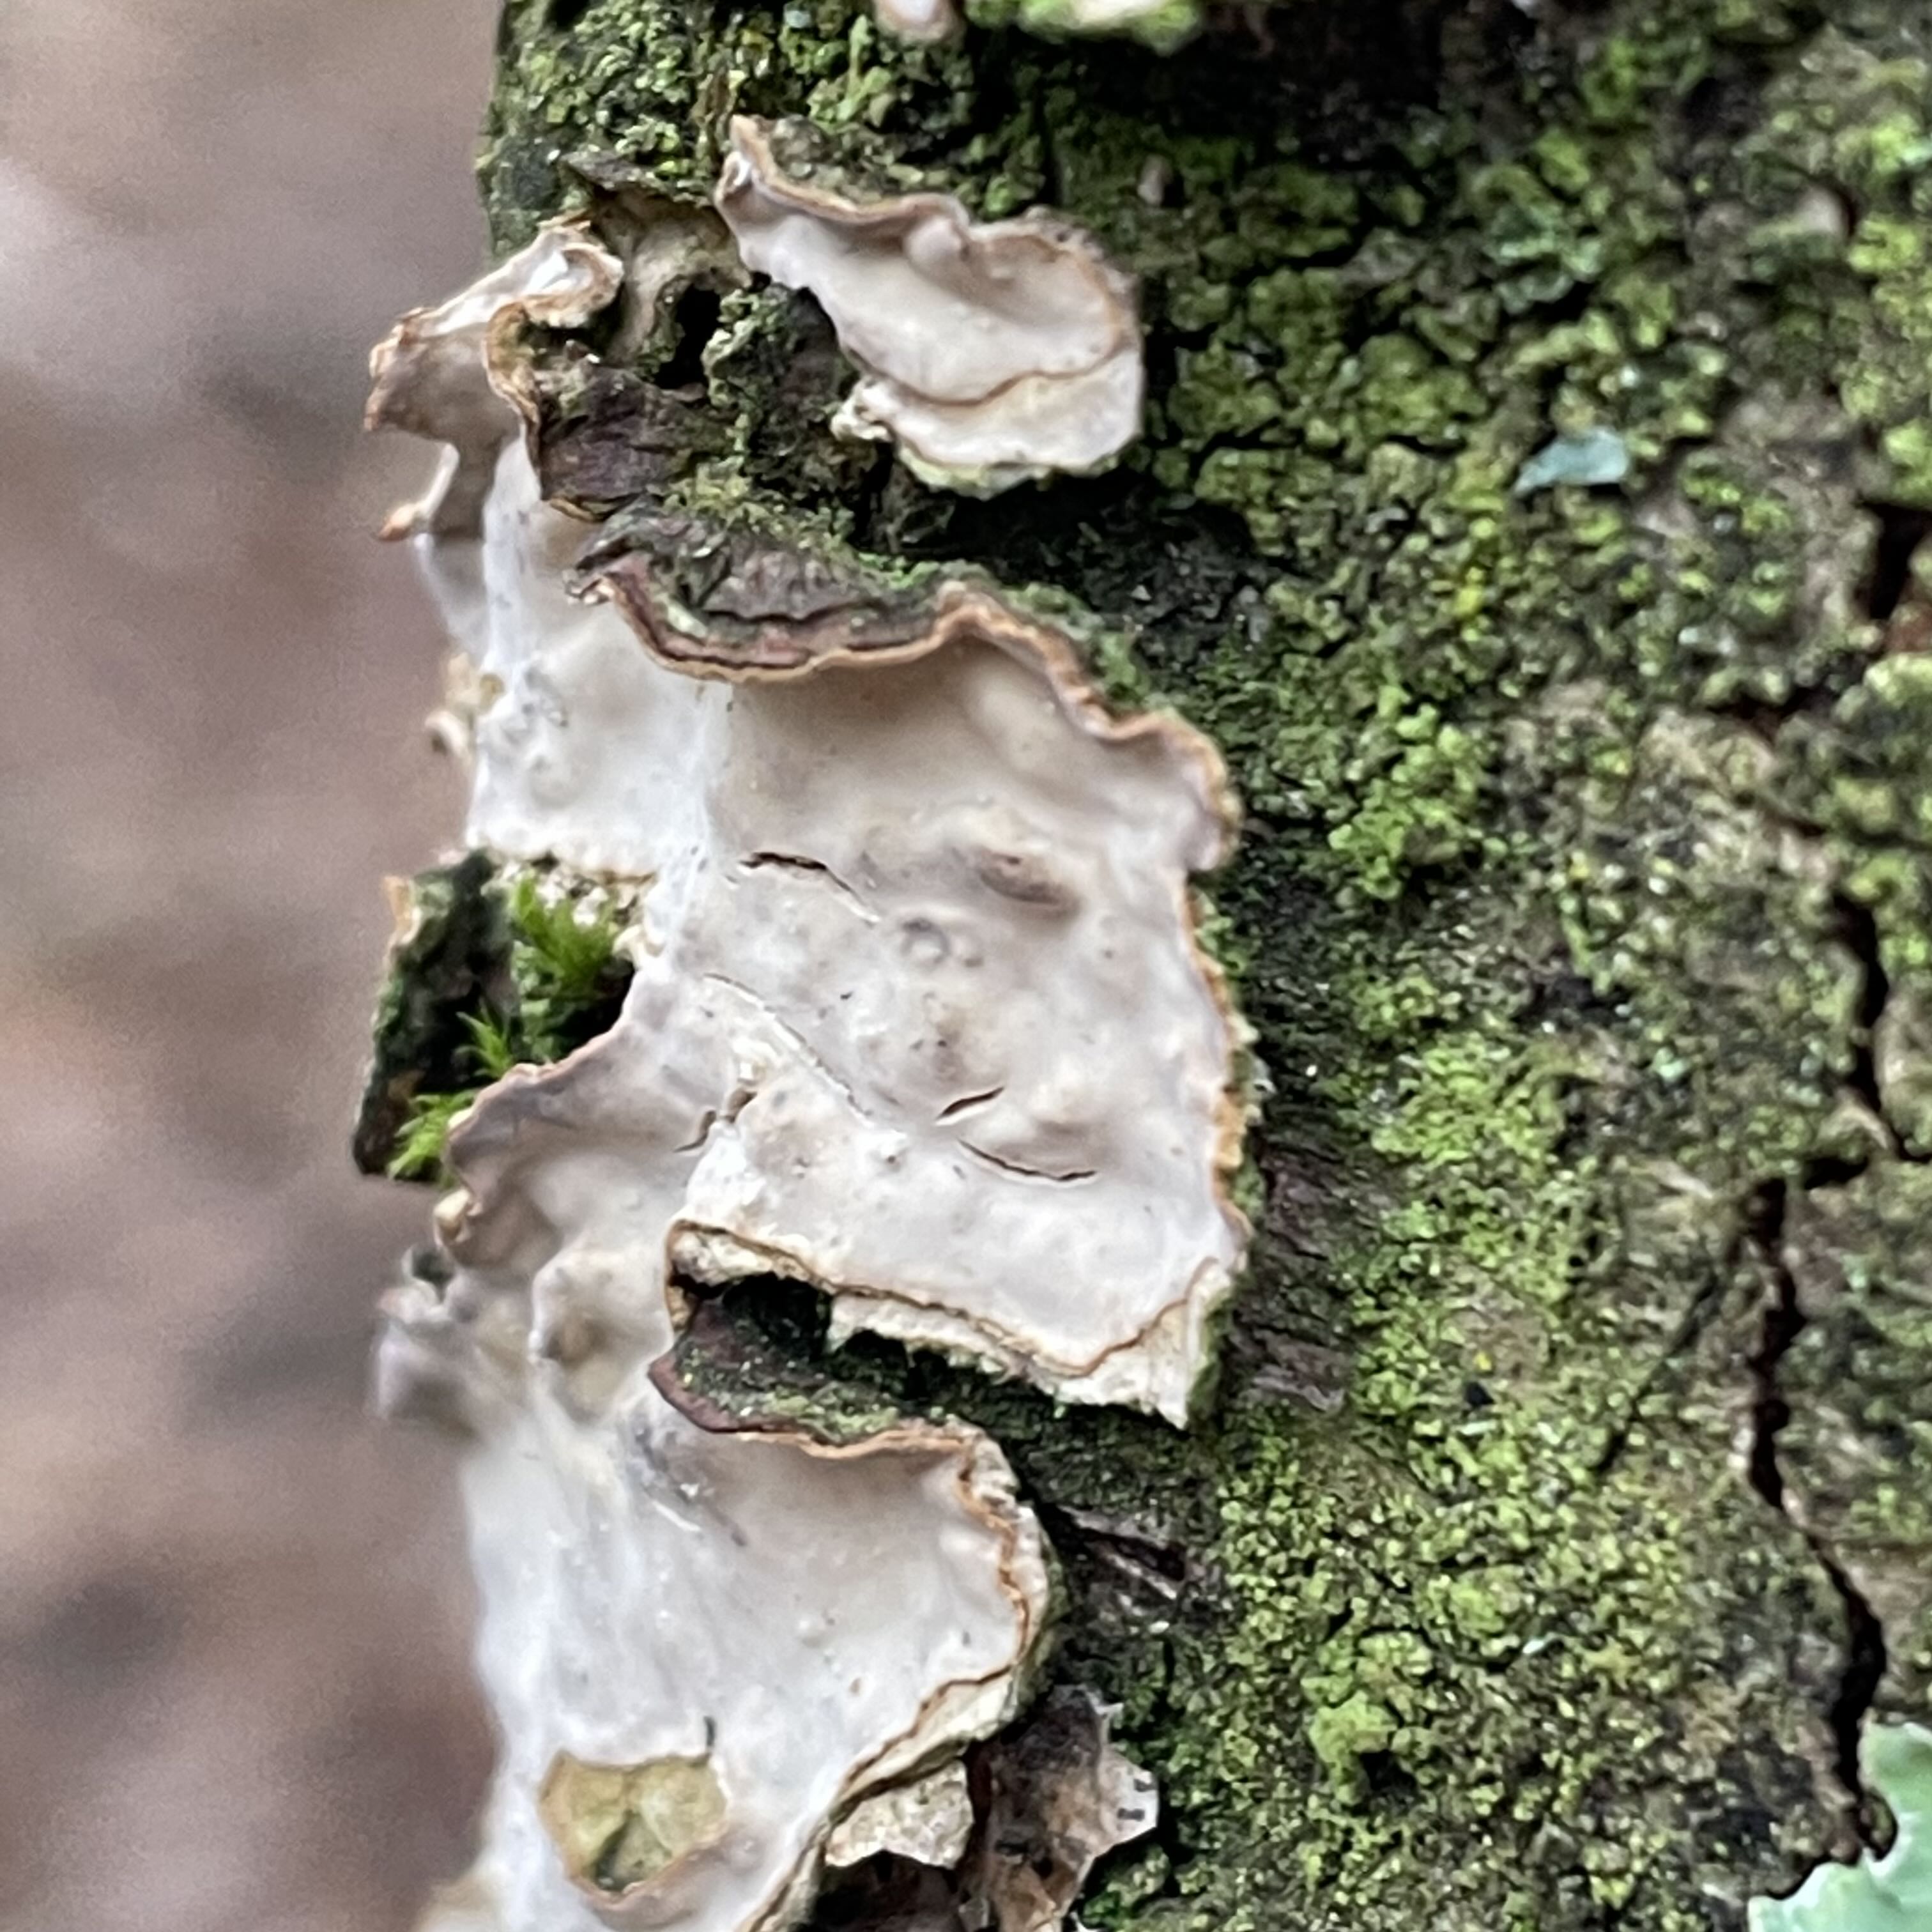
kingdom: Fungi
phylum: Basidiomycota
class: Agaricomycetes
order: Russulales
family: Stereaceae
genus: Stereum
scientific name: Stereum rugosum
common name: rynket lædersvamp
